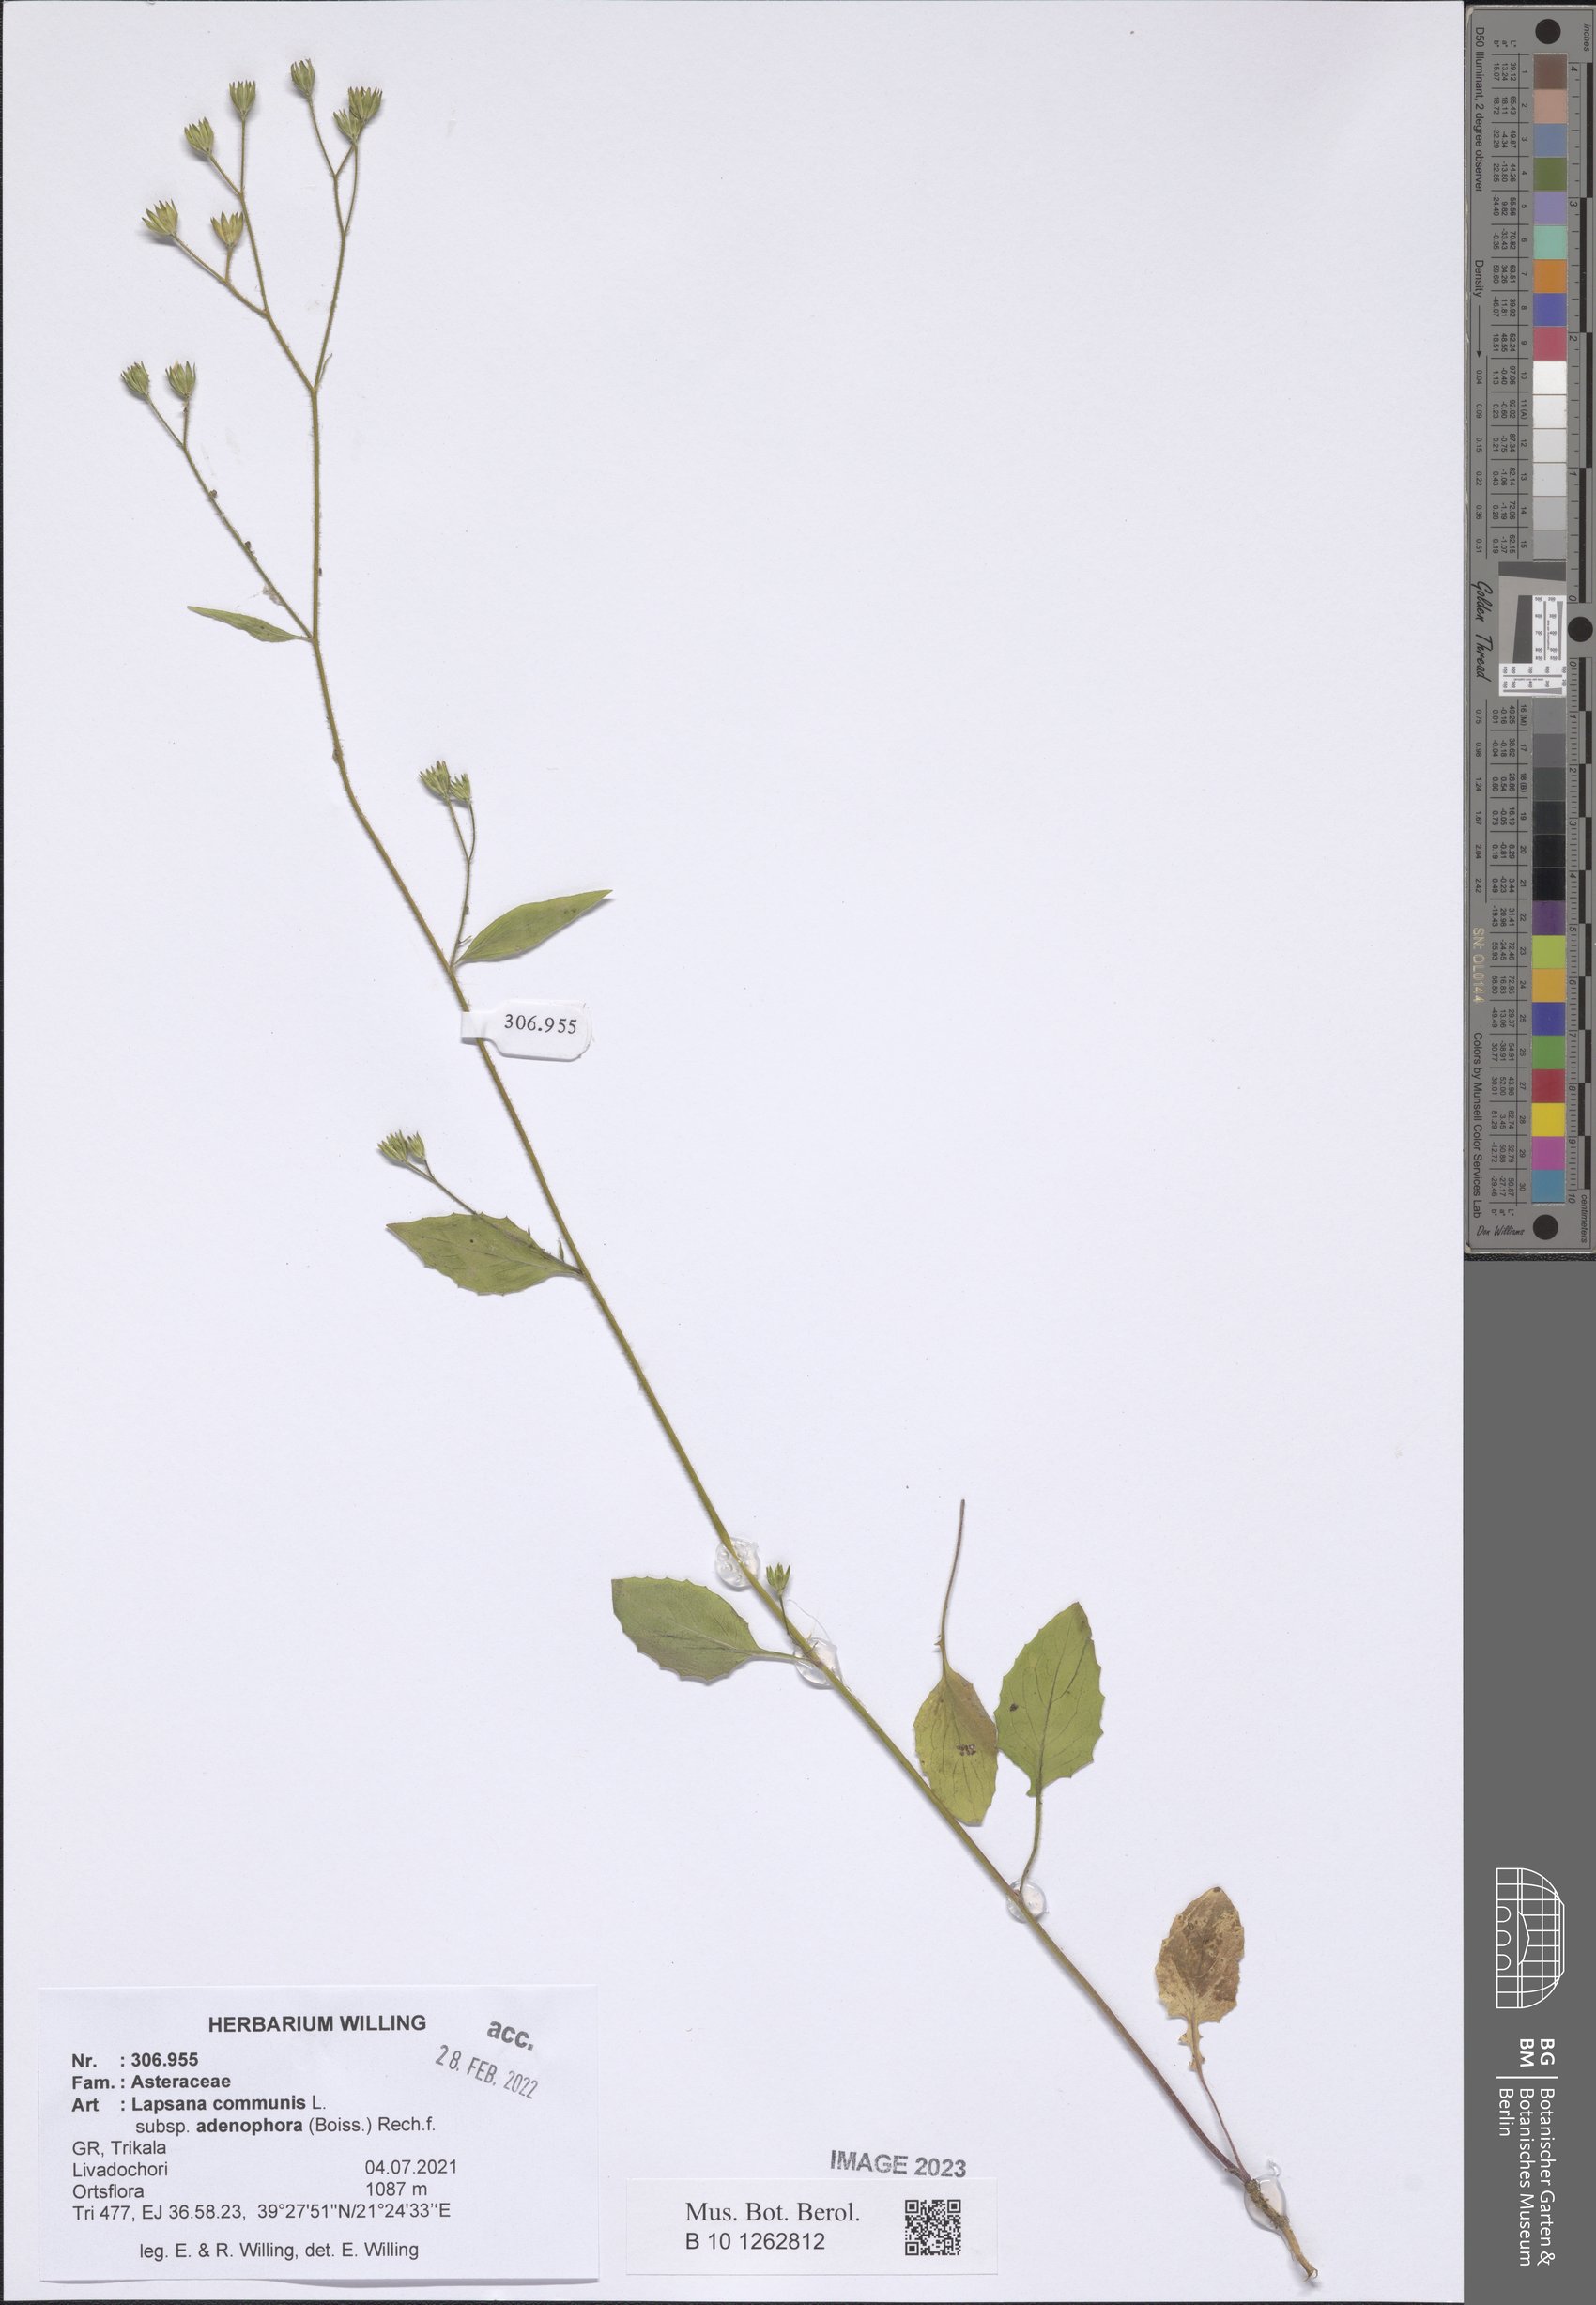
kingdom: Plantae
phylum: Tracheophyta
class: Magnoliopsida
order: Asterales
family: Asteraceae
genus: Lapsana
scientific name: Lapsana communis
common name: Nipplewort
